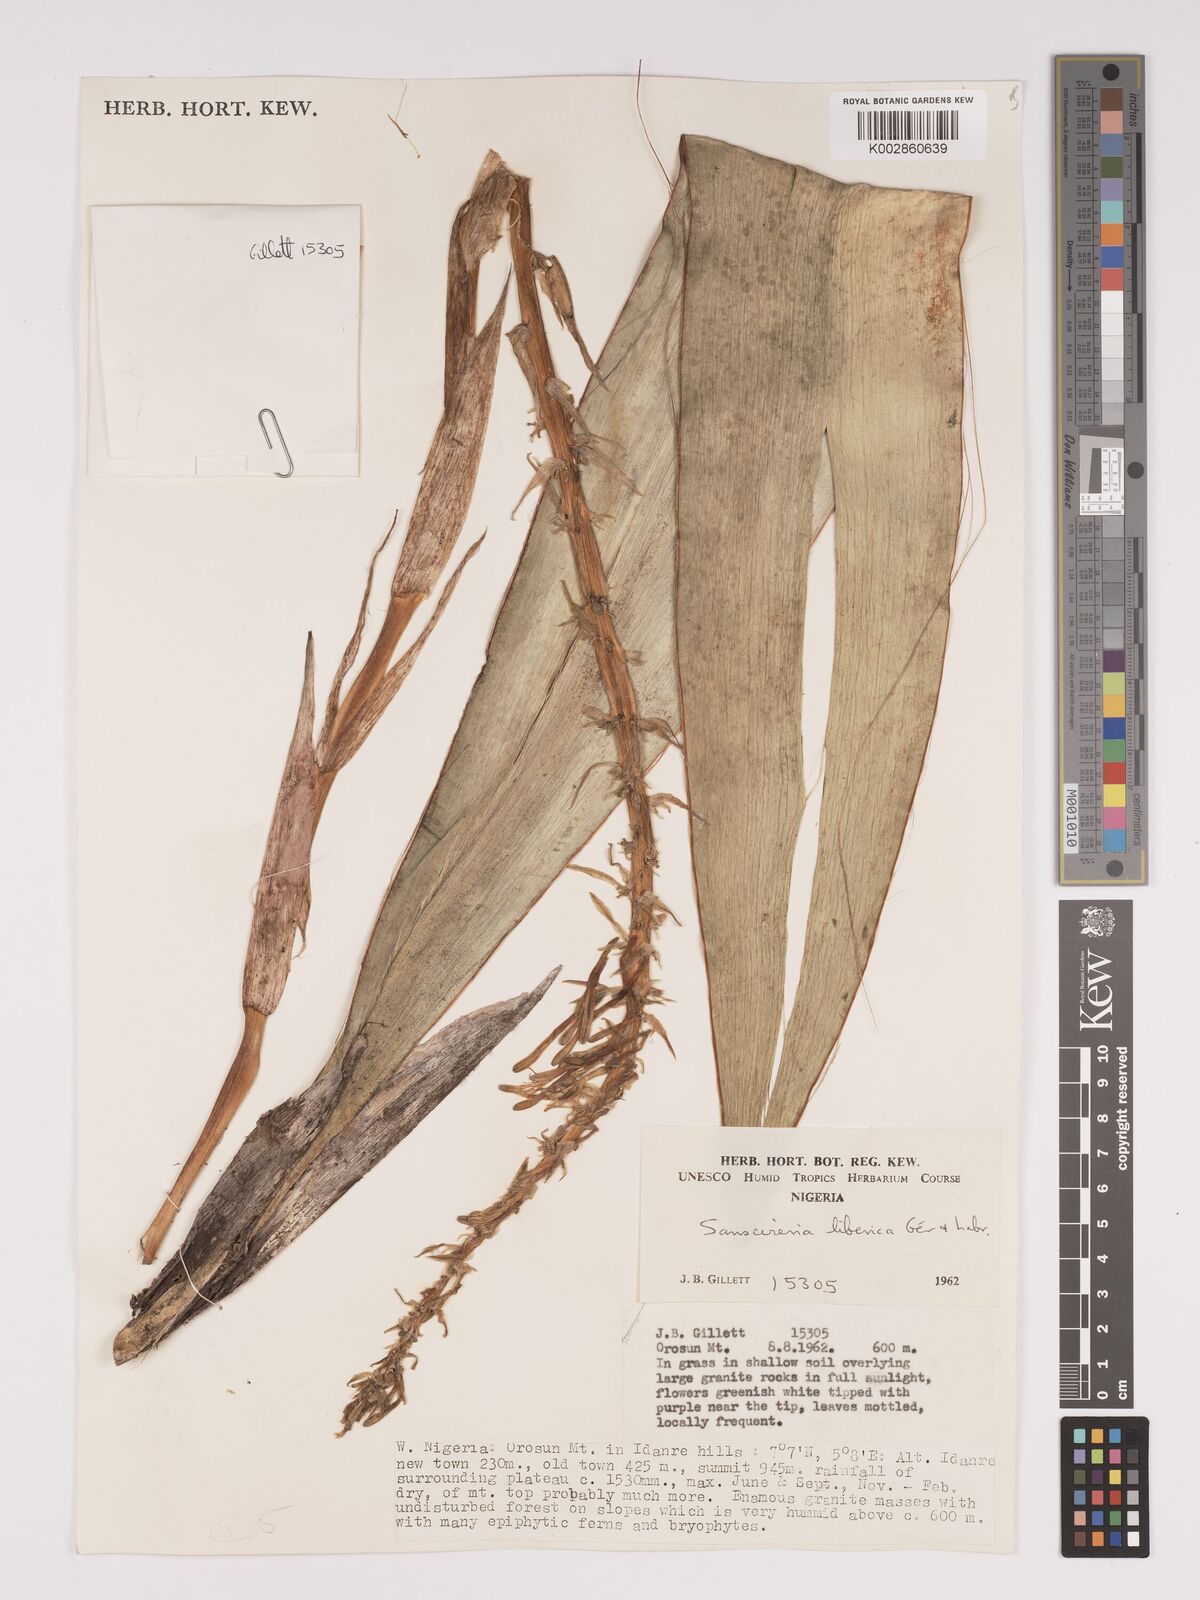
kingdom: Plantae
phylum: Tracheophyta
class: Liliopsida
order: Asparagales
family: Asparagaceae
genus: Dracaena
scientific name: Dracaena liberica
